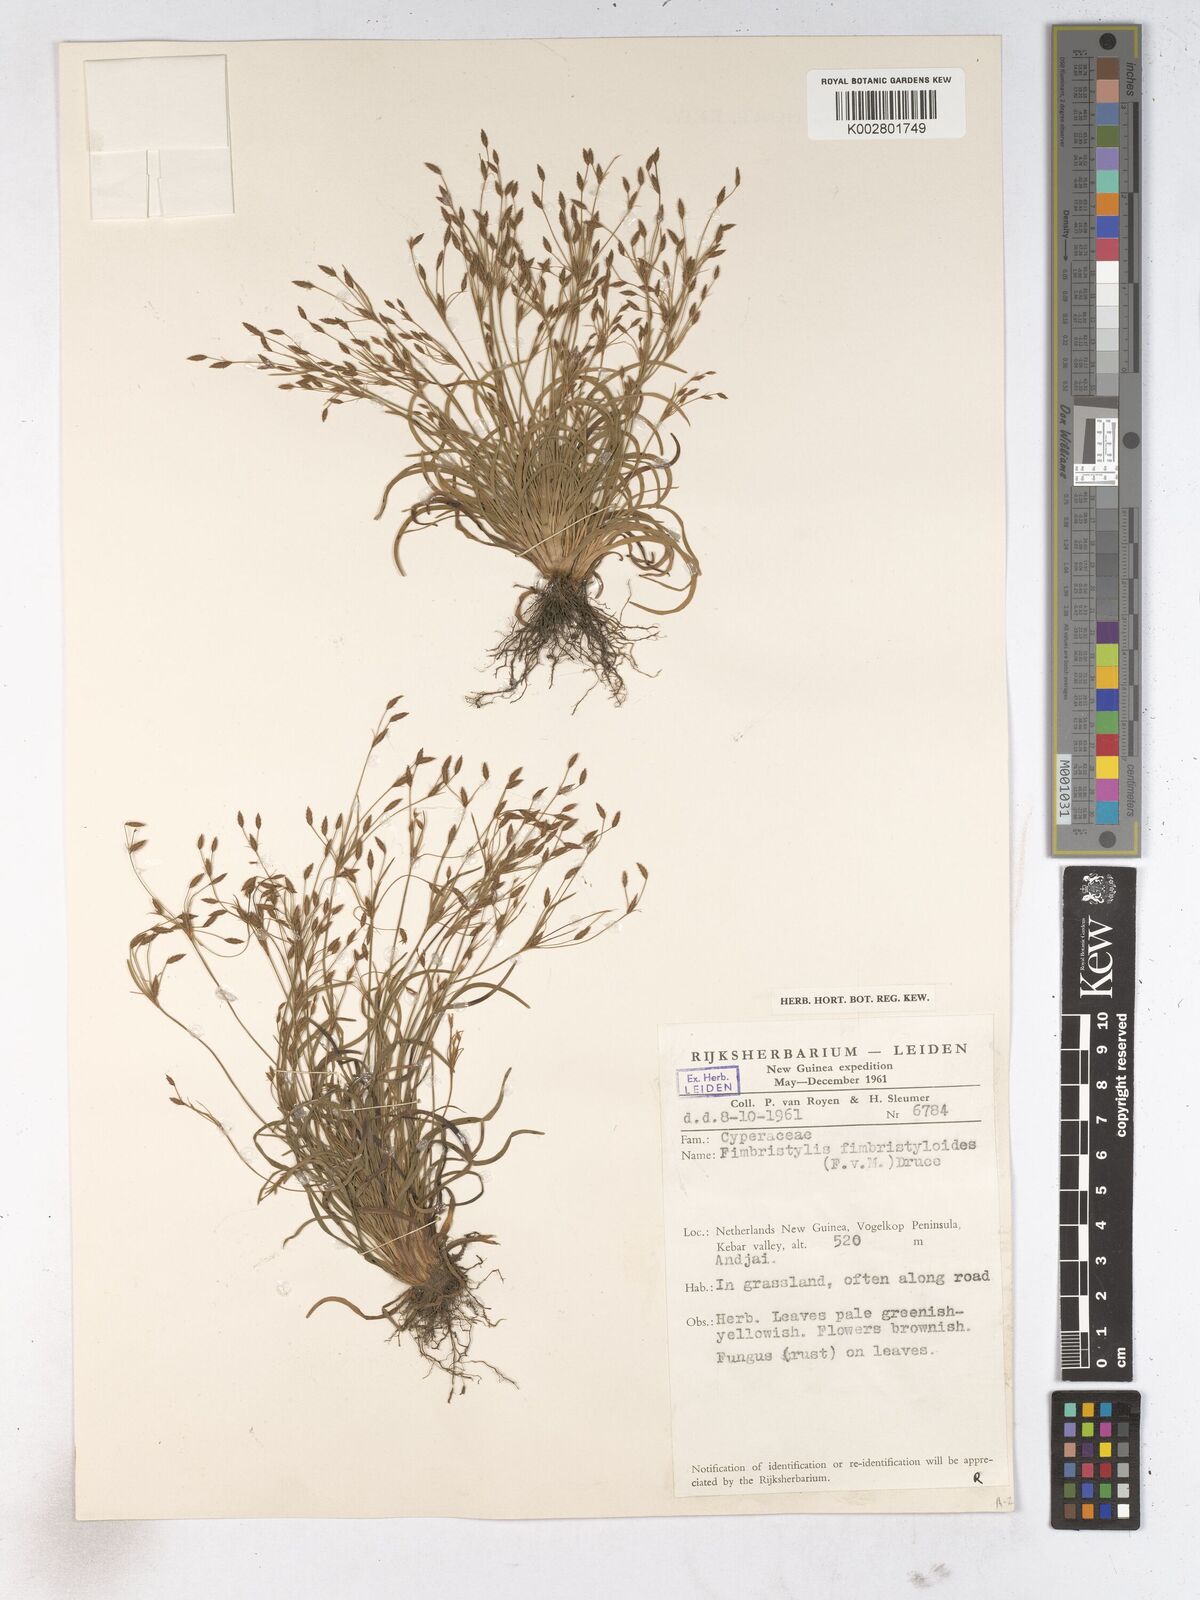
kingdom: Plantae
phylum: Tracheophyta
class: Liliopsida
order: Poales
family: Cyperaceae
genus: Fimbristylis
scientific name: Fimbristylis fimbristyloides
